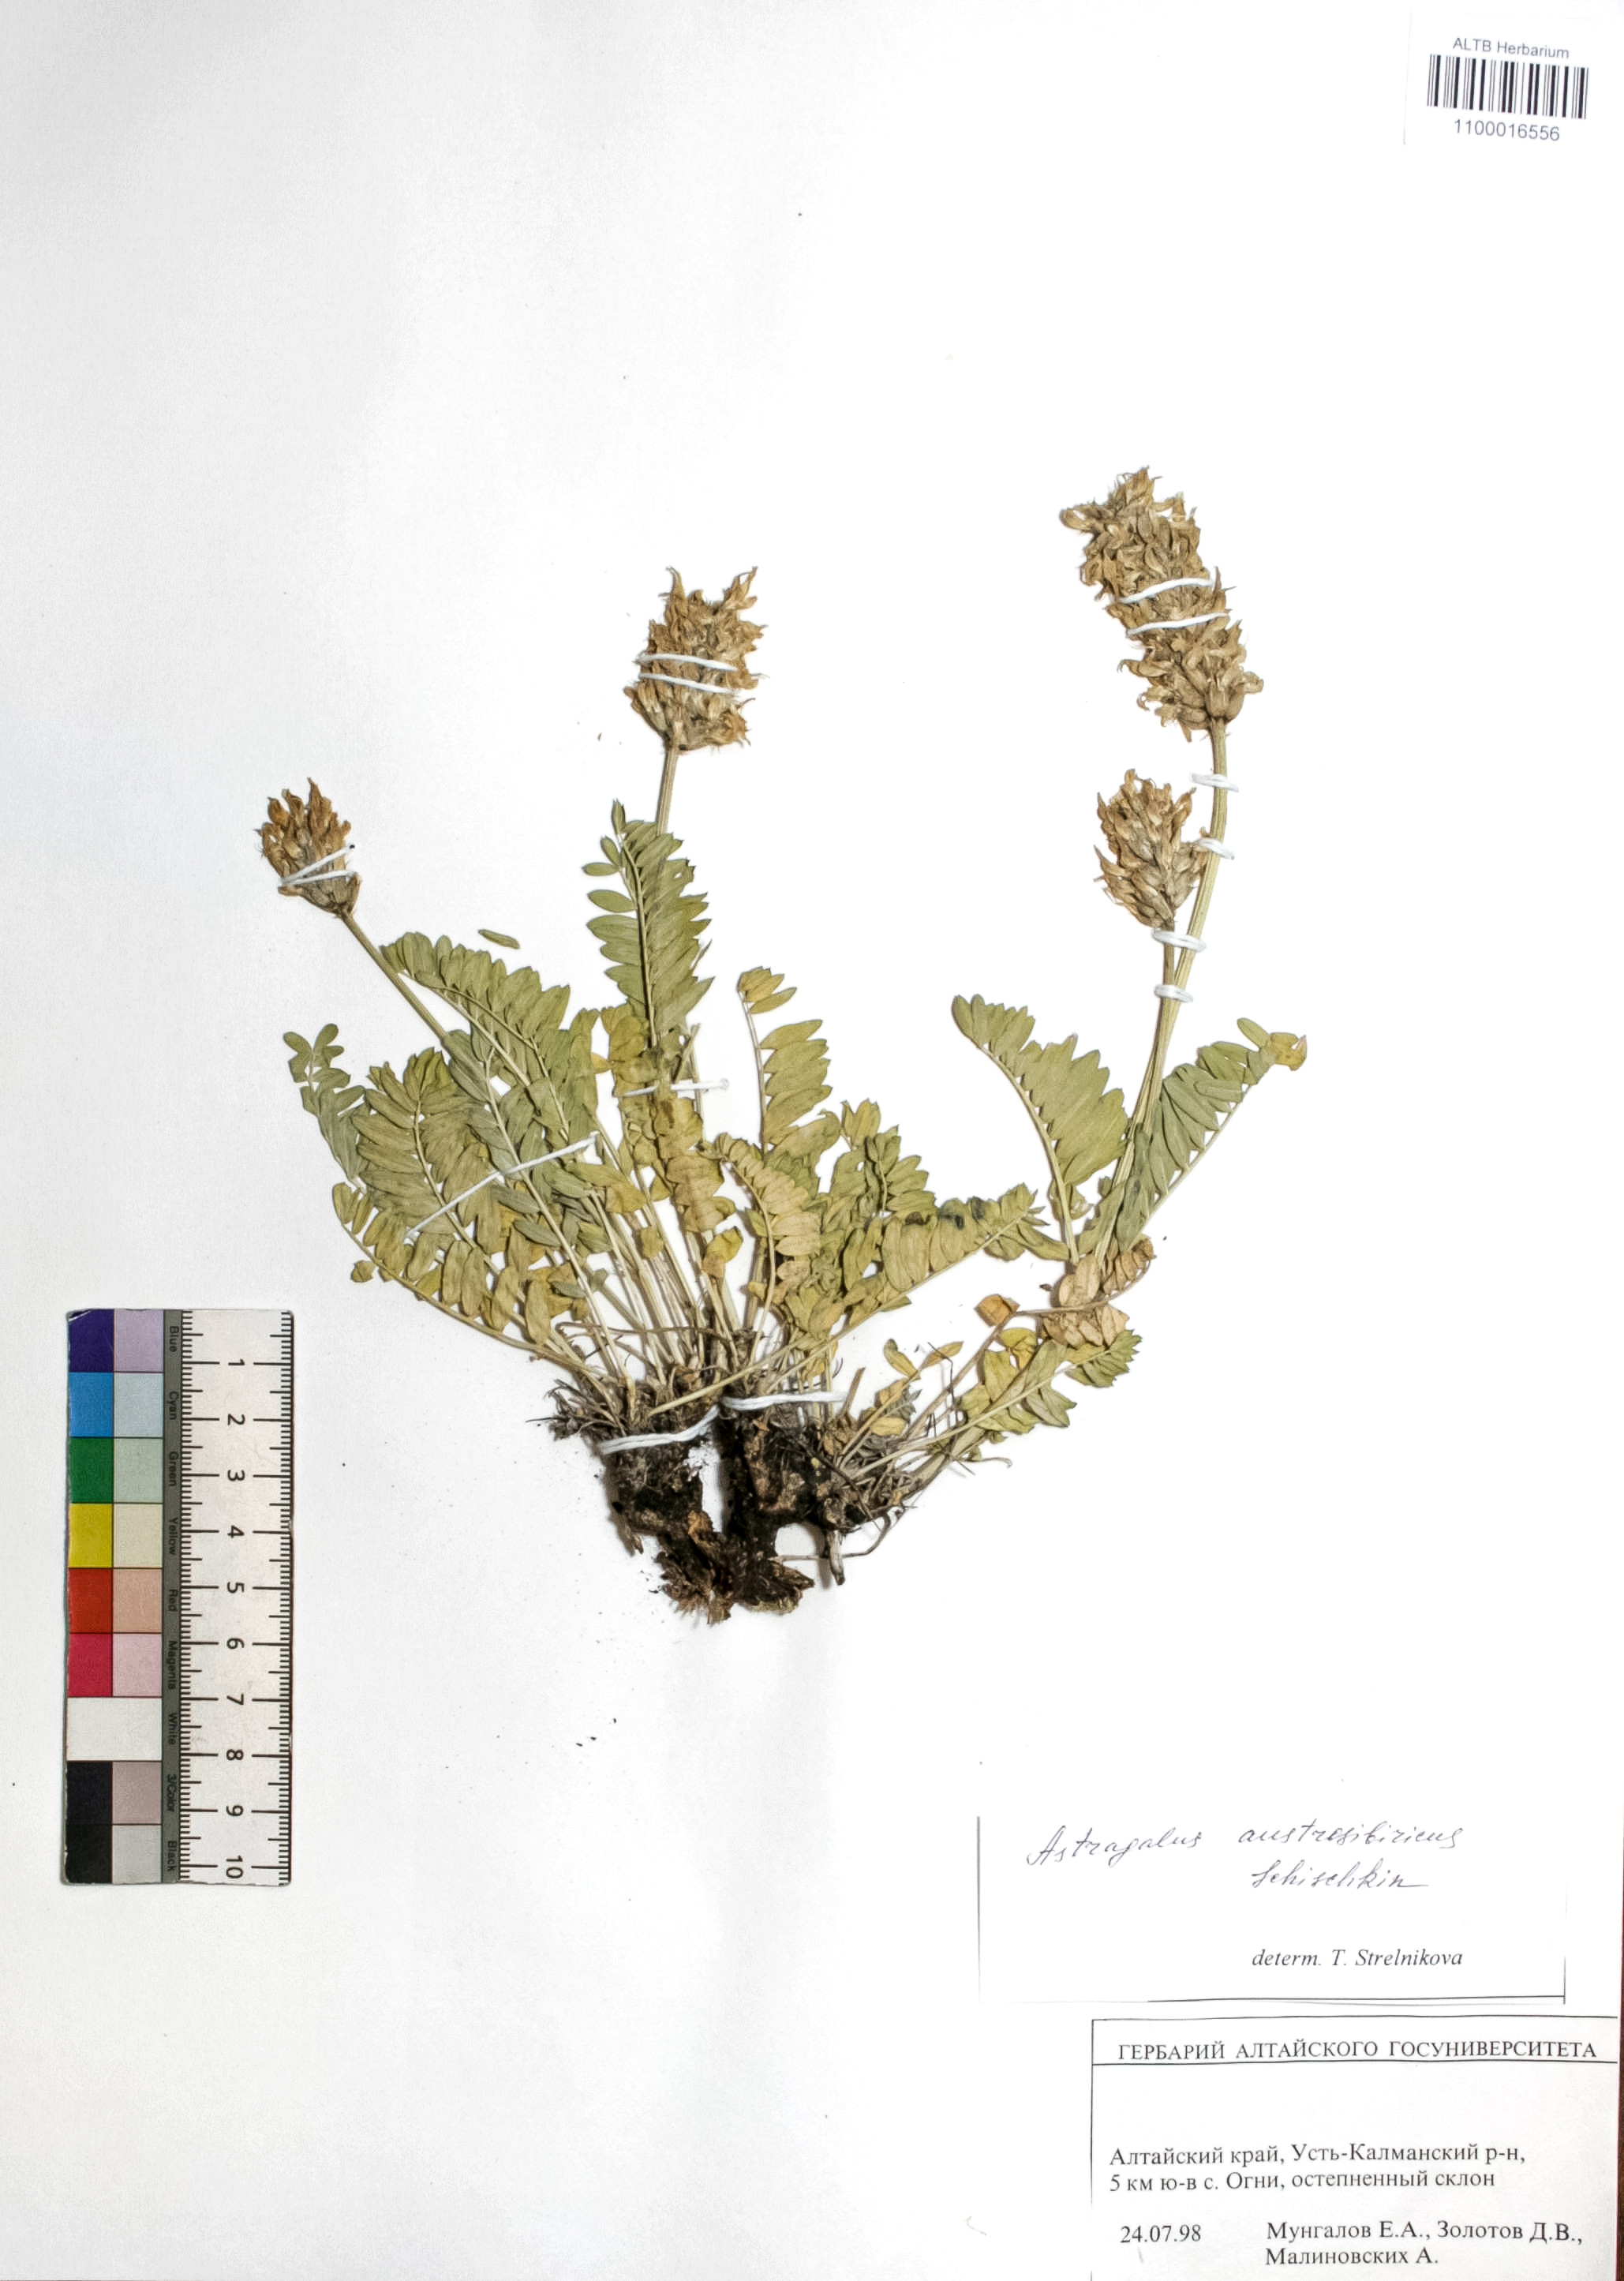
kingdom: Plantae
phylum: Tracheophyta
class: Magnoliopsida
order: Fabales
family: Fabaceae
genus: Astragalus
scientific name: Astragalus laxmannii
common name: Laxmann's milk-vetch
